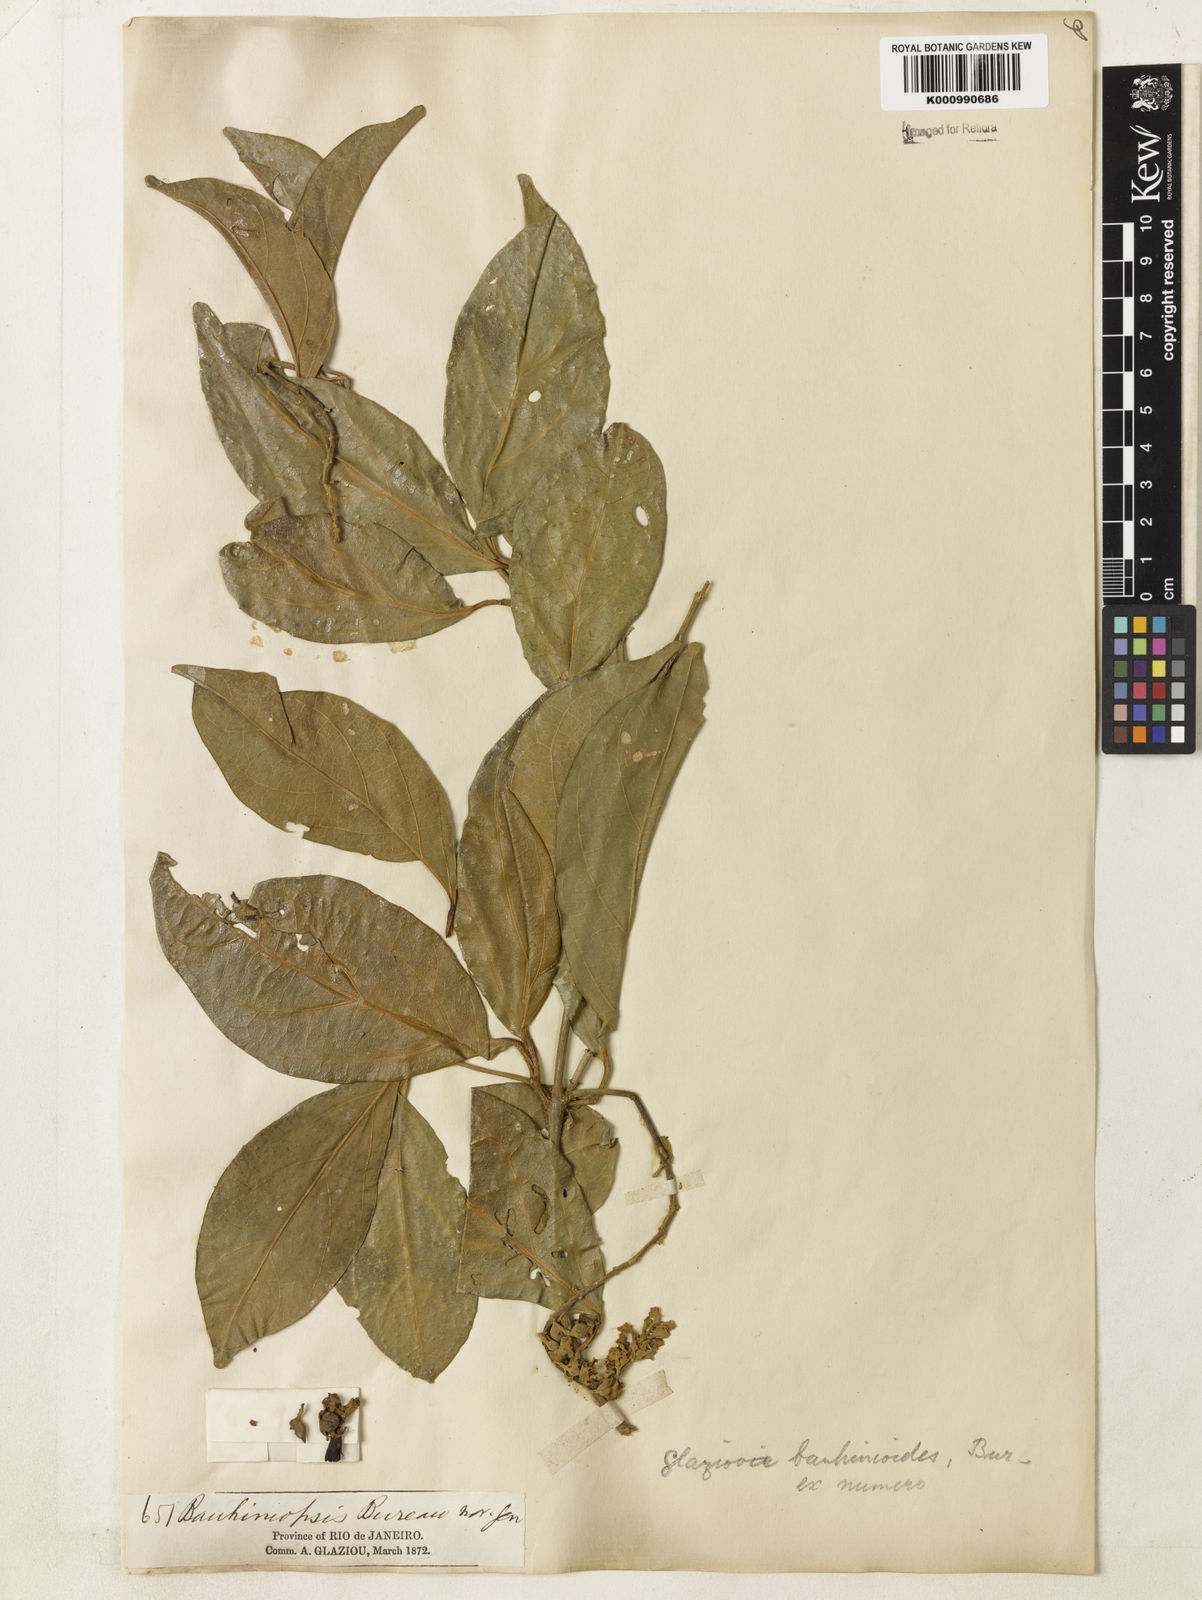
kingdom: Plantae
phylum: Tracheophyta
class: Magnoliopsida
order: Lamiales
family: Bignoniaceae
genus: Amphilophium
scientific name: Amphilophium bauhinioides
